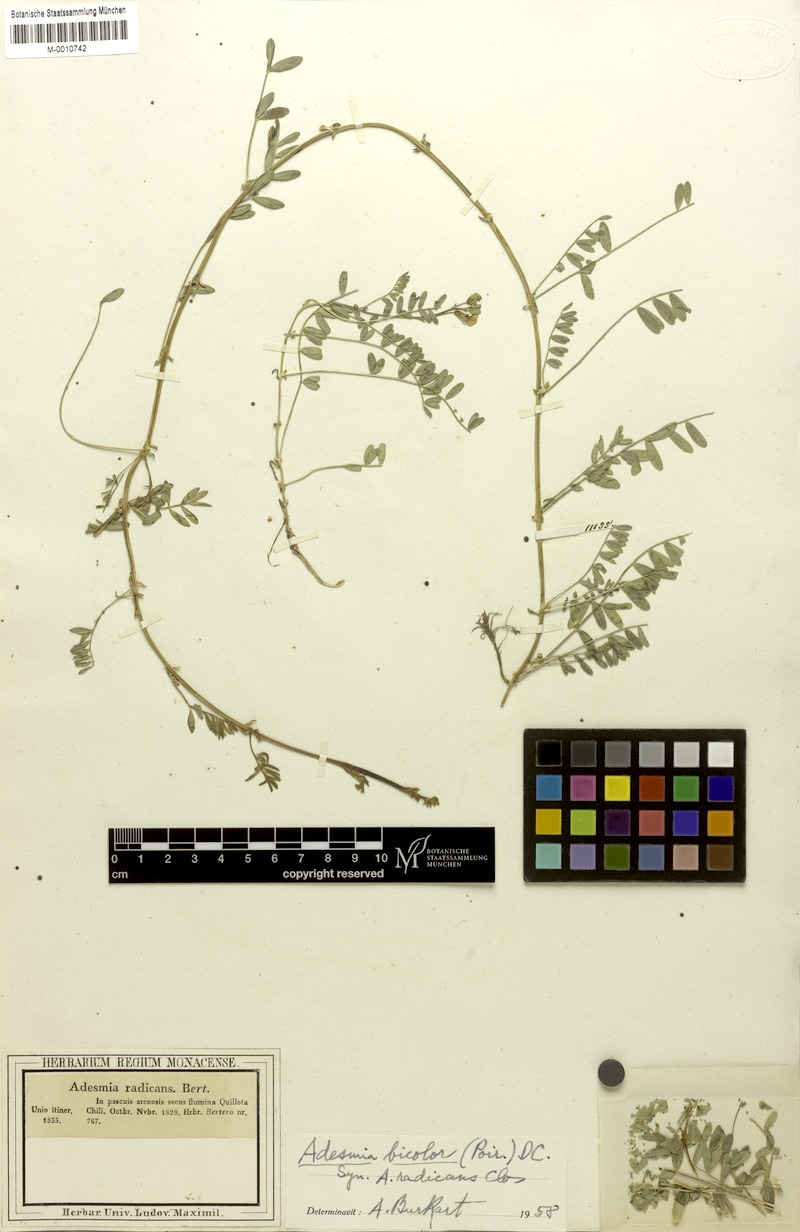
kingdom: Plantae
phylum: Tracheophyta
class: Magnoliopsida
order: Fabales
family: Fabaceae
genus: Adesmia
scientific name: Adesmia bicolor
